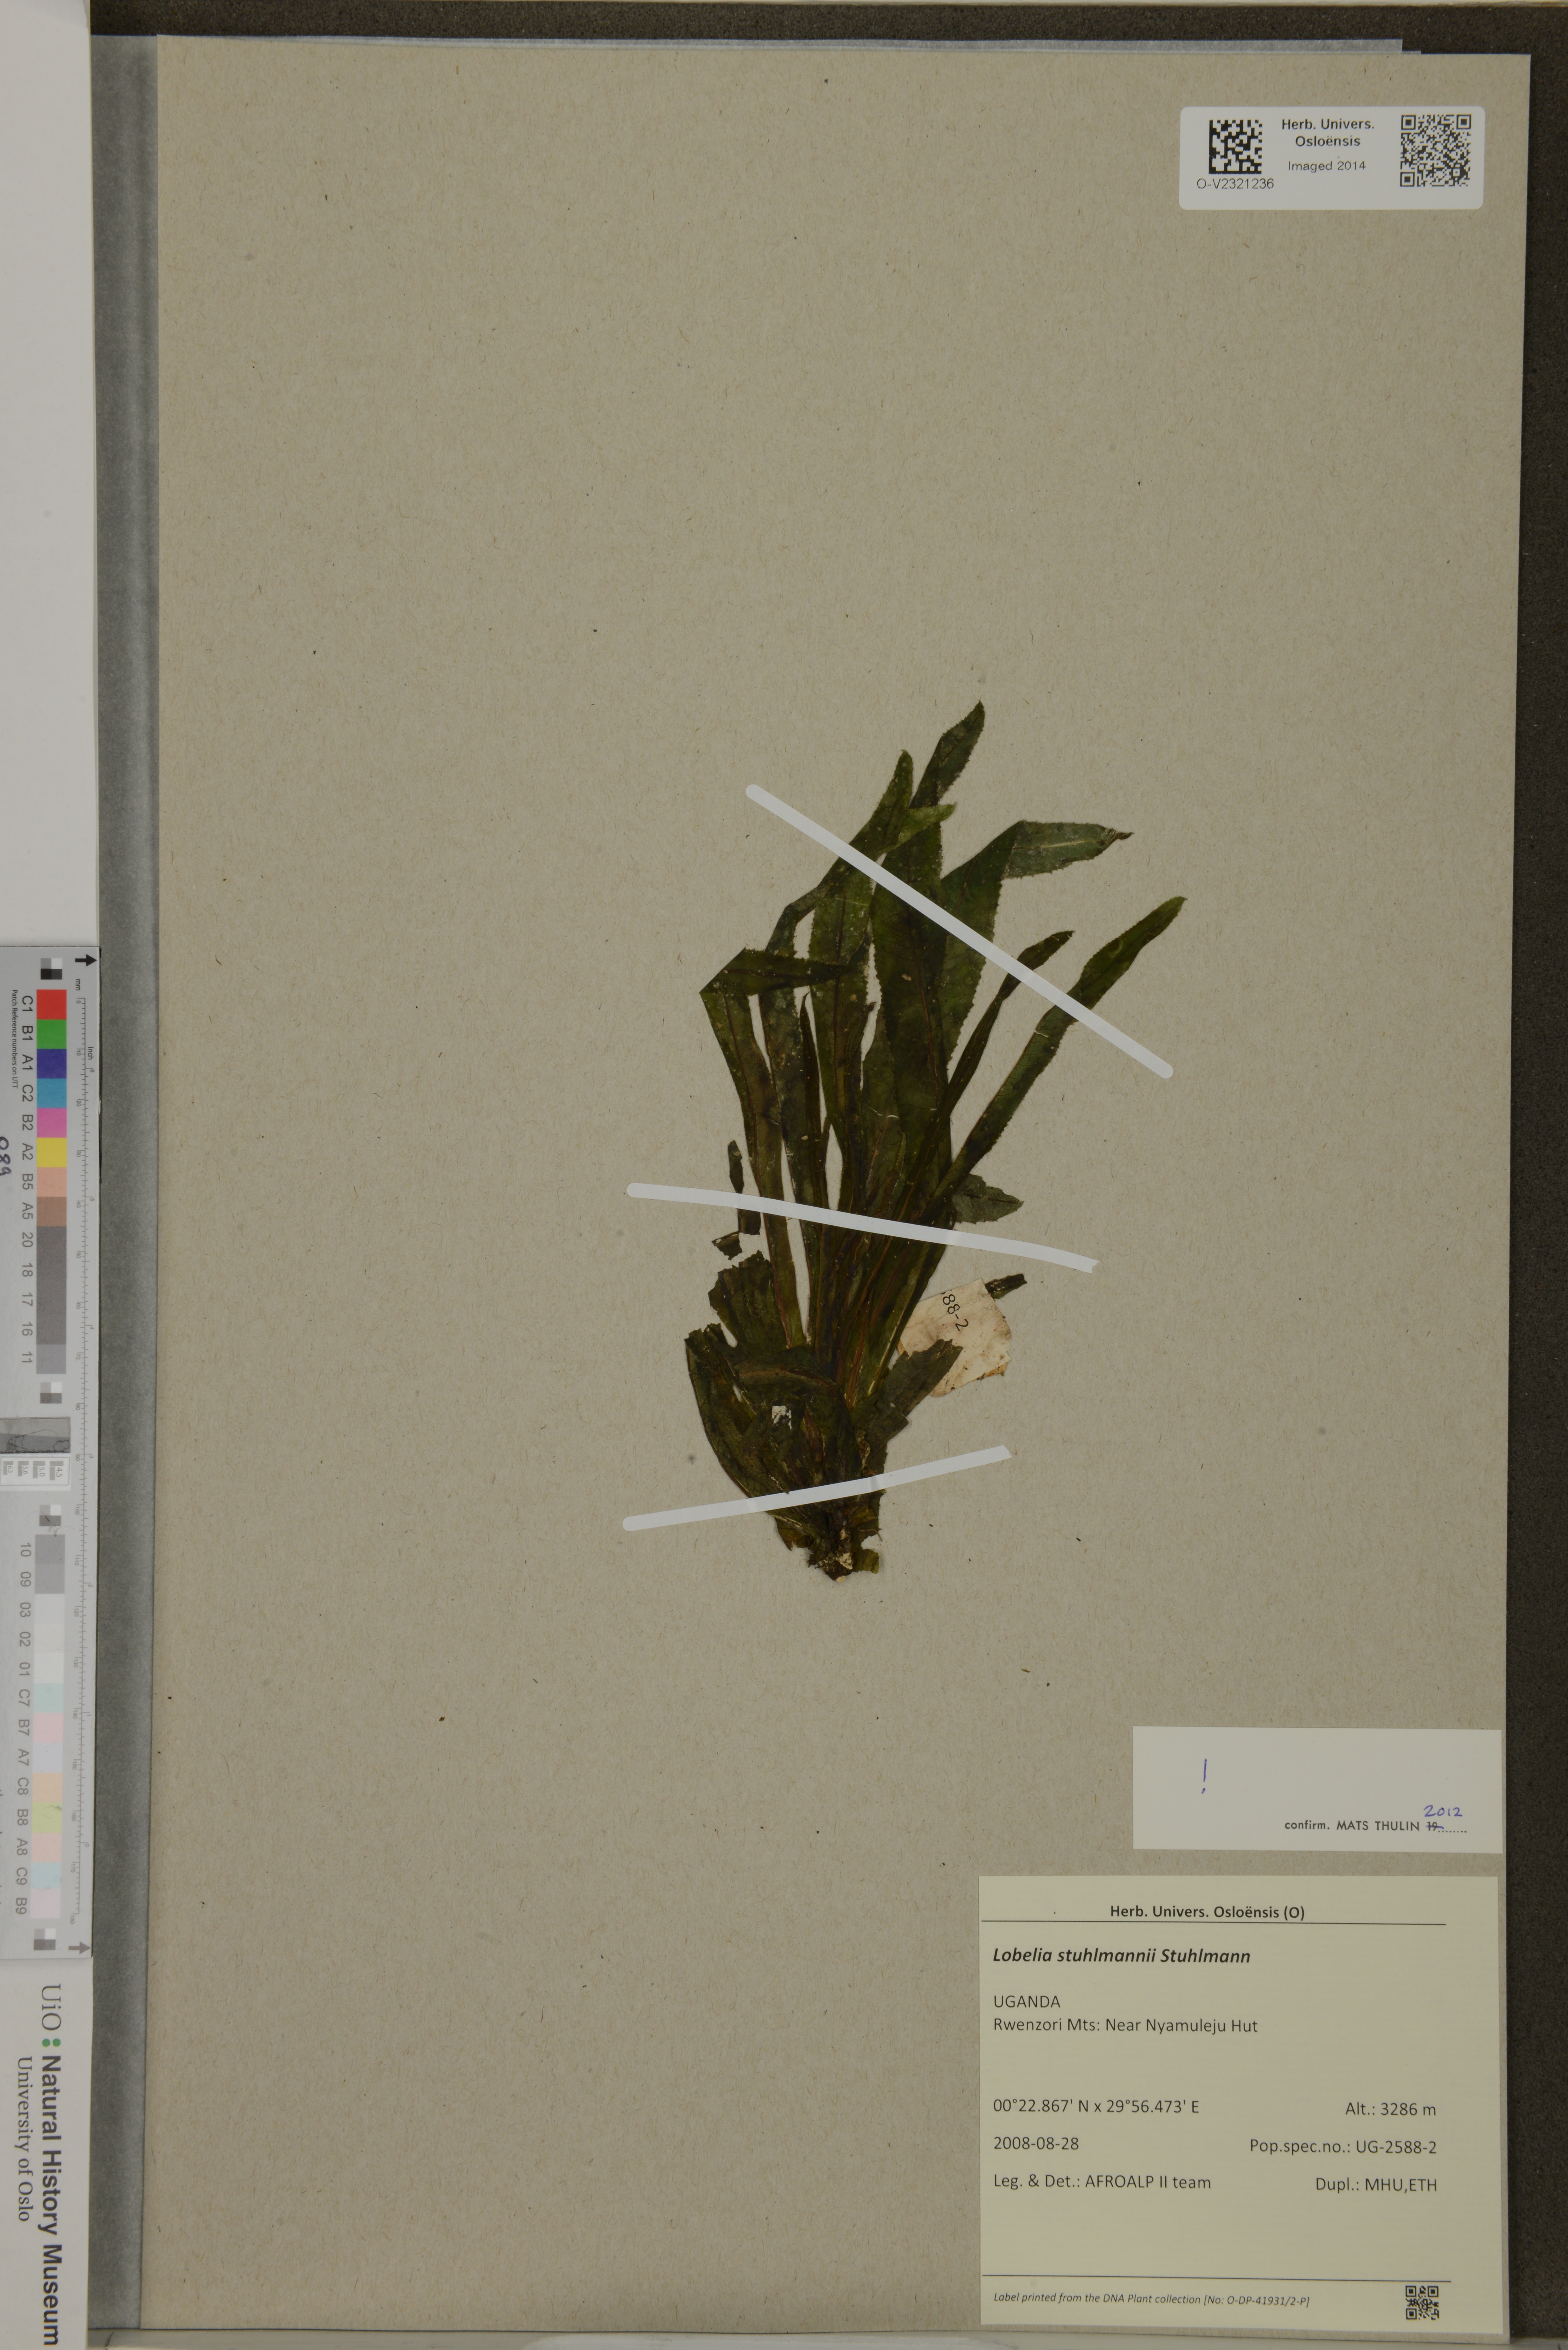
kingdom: Plantae
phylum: Tracheophyta
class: Magnoliopsida
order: Asterales
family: Campanulaceae
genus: Lobelia
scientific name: Lobelia stuhlmannii
